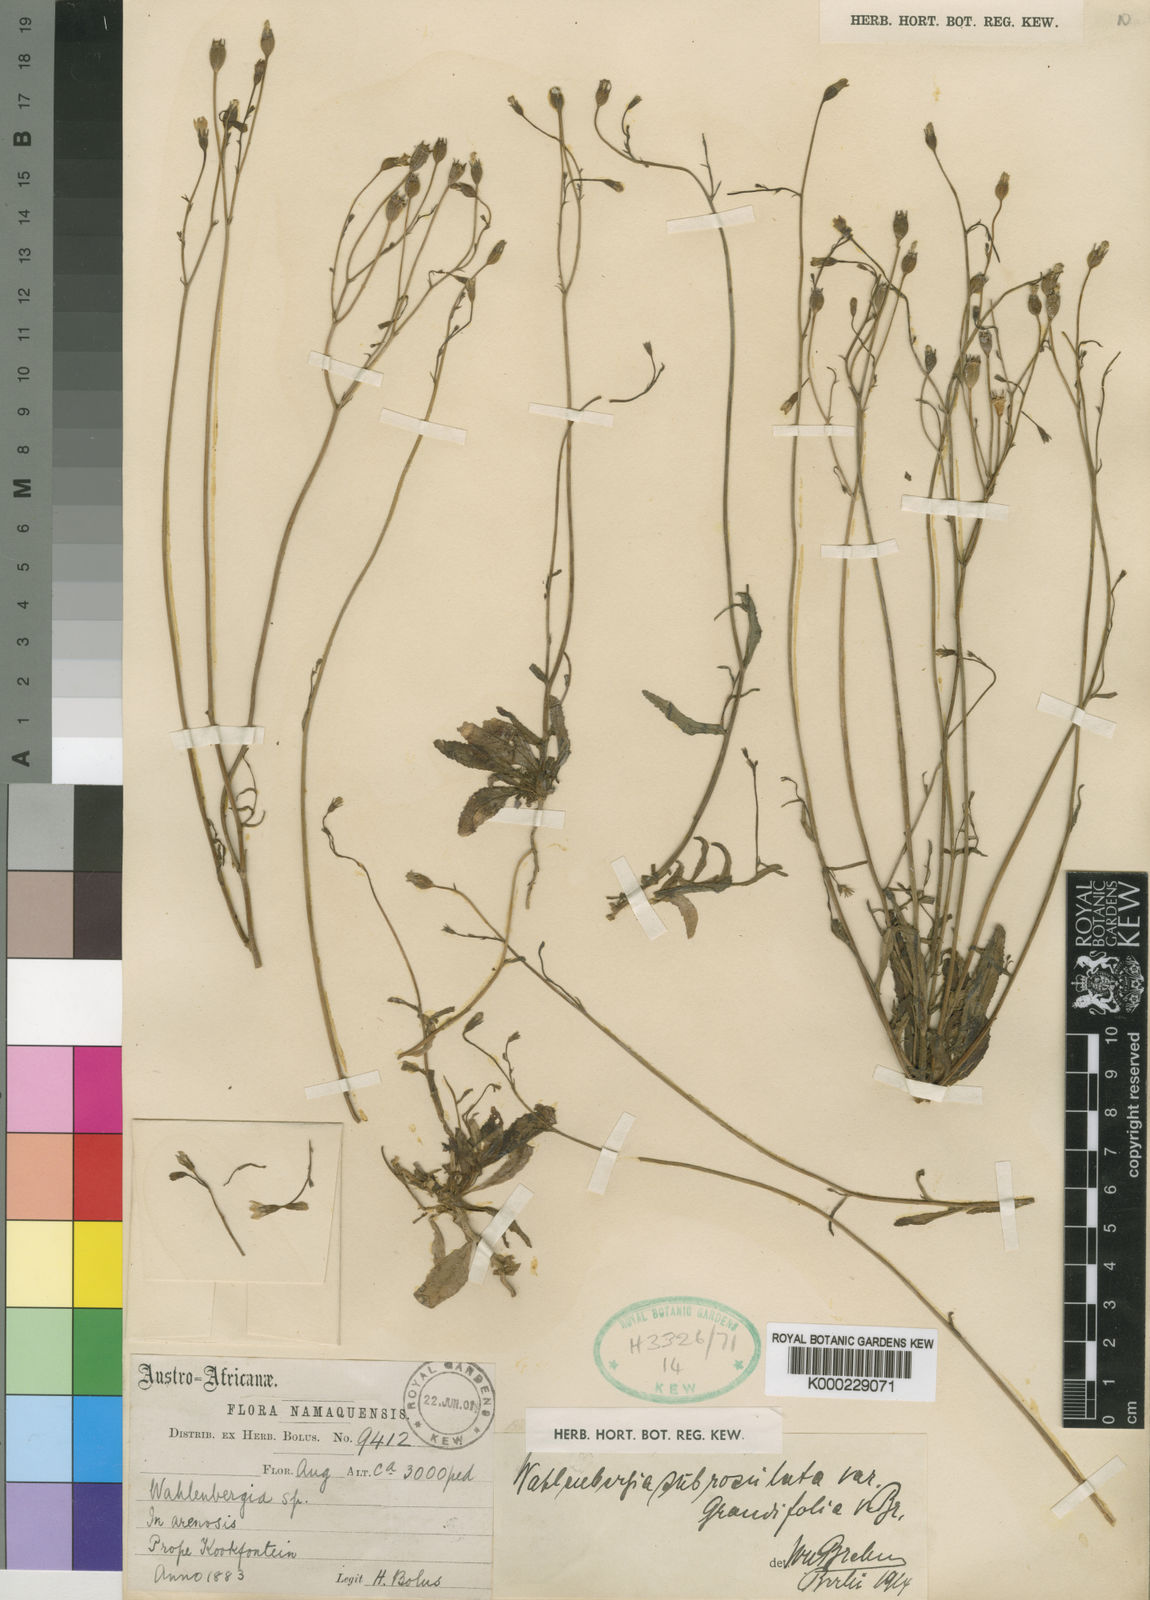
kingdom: Plantae
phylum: Tracheophyta
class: Magnoliopsida
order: Asterales
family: Campanulaceae
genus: Wahlenbergia
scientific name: Wahlenbergia subrosulata
